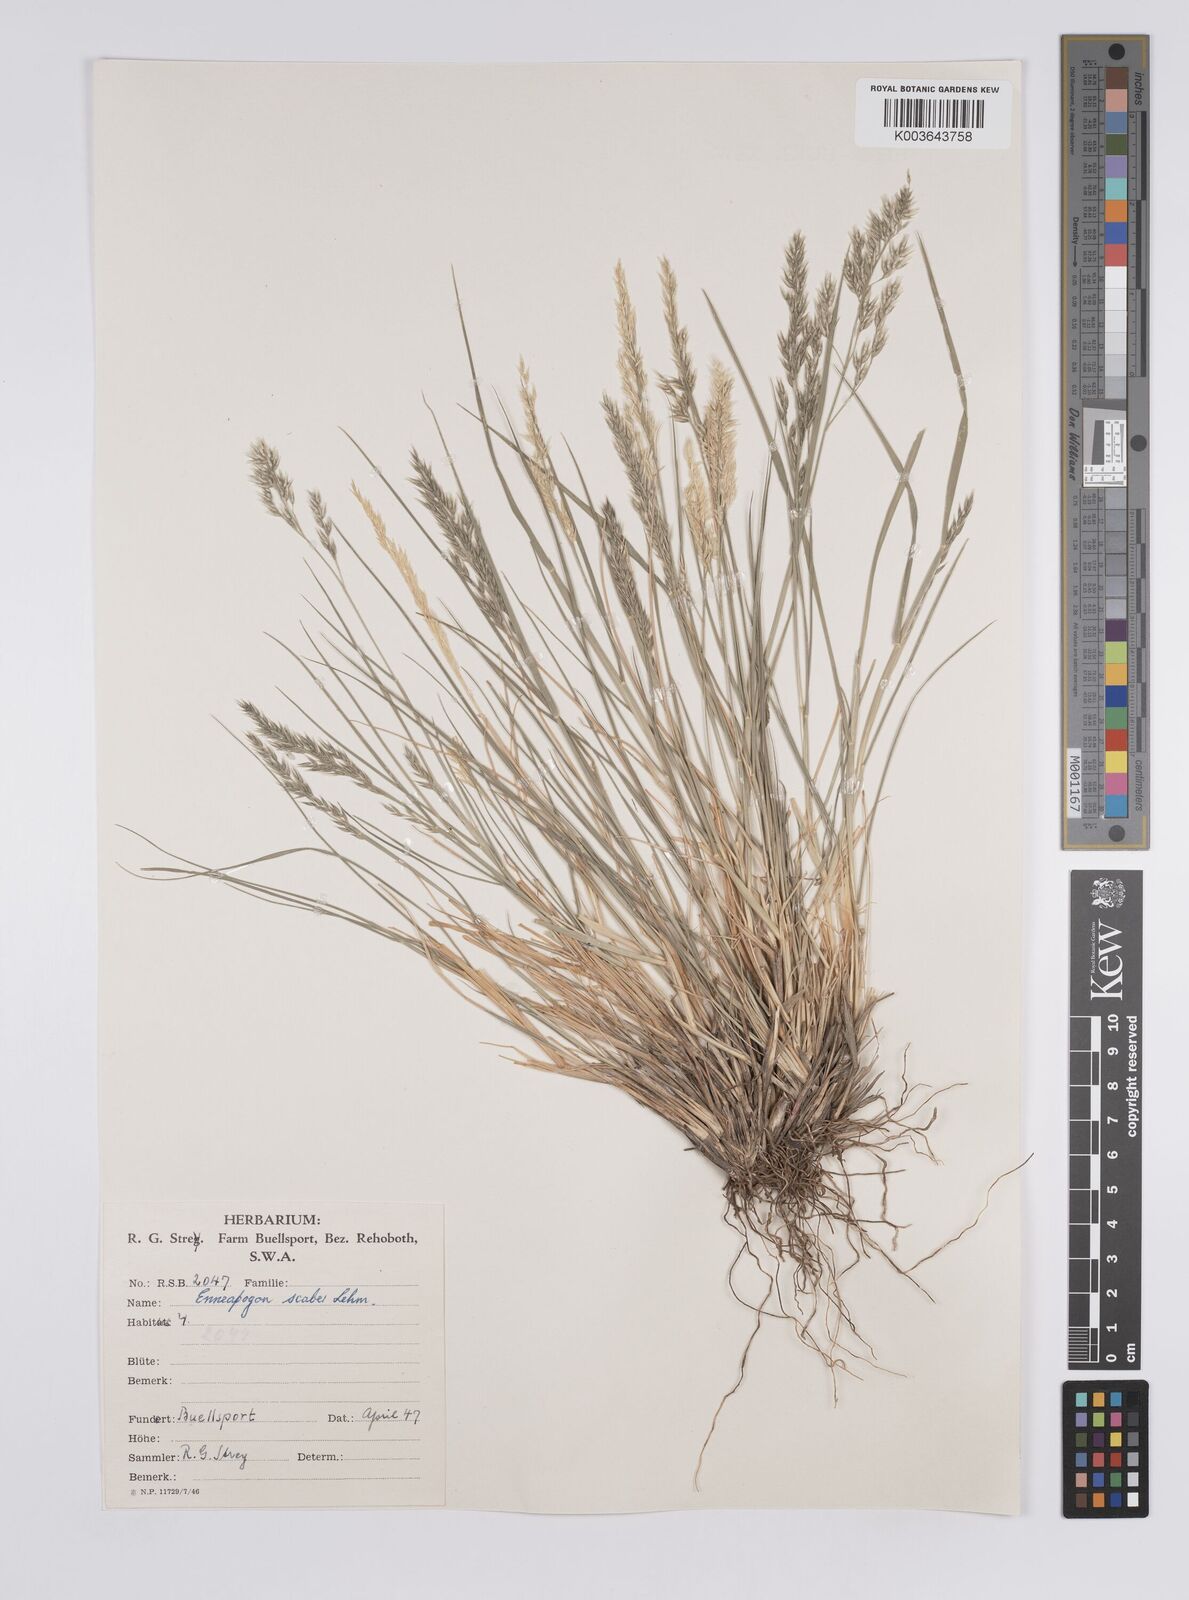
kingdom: Plantae
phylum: Tracheophyta
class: Liliopsida
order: Poales
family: Poaceae
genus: Enneapogon
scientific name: Enneapogon scaber
